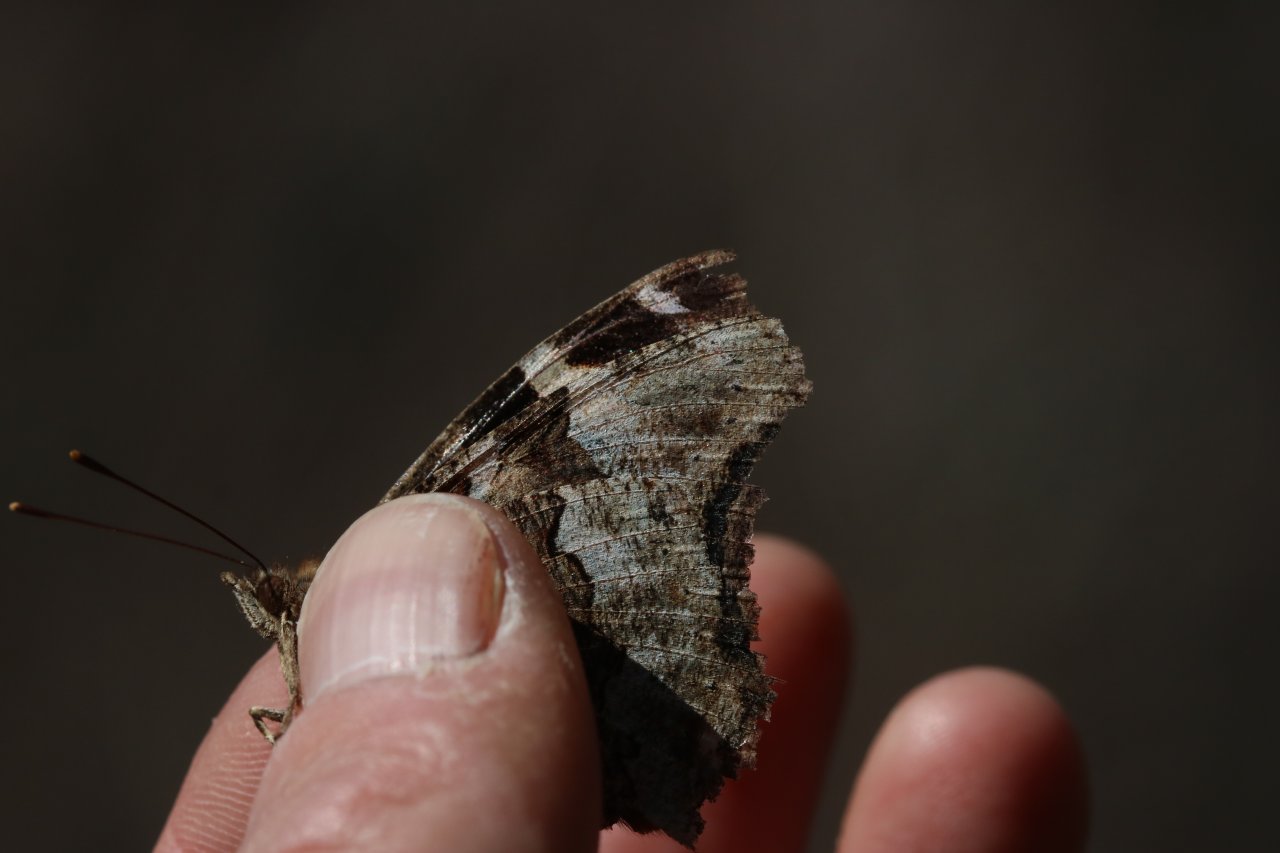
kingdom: Animalia
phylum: Arthropoda
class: Insecta
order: Lepidoptera
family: Nymphalidae
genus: Polygonia
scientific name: Polygonia vaualbum
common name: Compton Tortoiseshell
